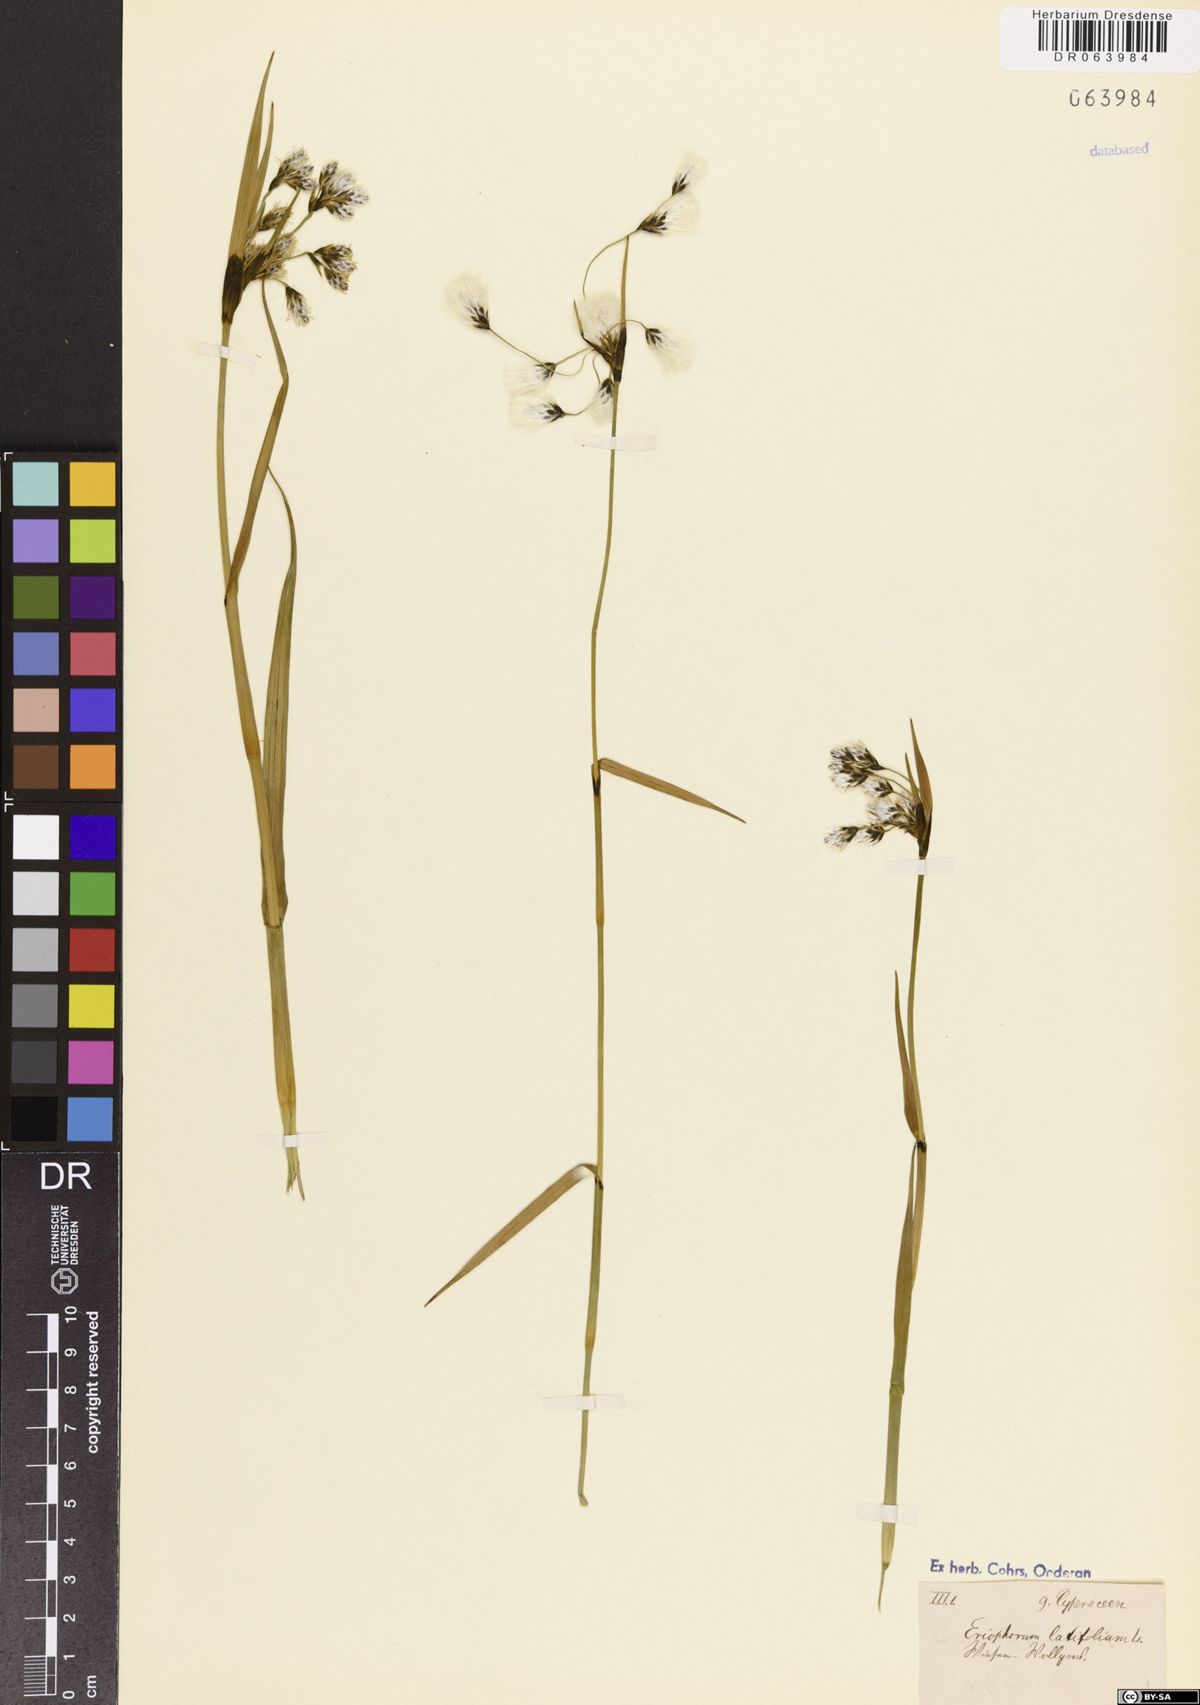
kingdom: Plantae
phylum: Tracheophyta
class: Liliopsida
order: Poales
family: Cyperaceae
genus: Eriophorum
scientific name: Eriophorum latifolium
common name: Broad-leaved cottongrass
